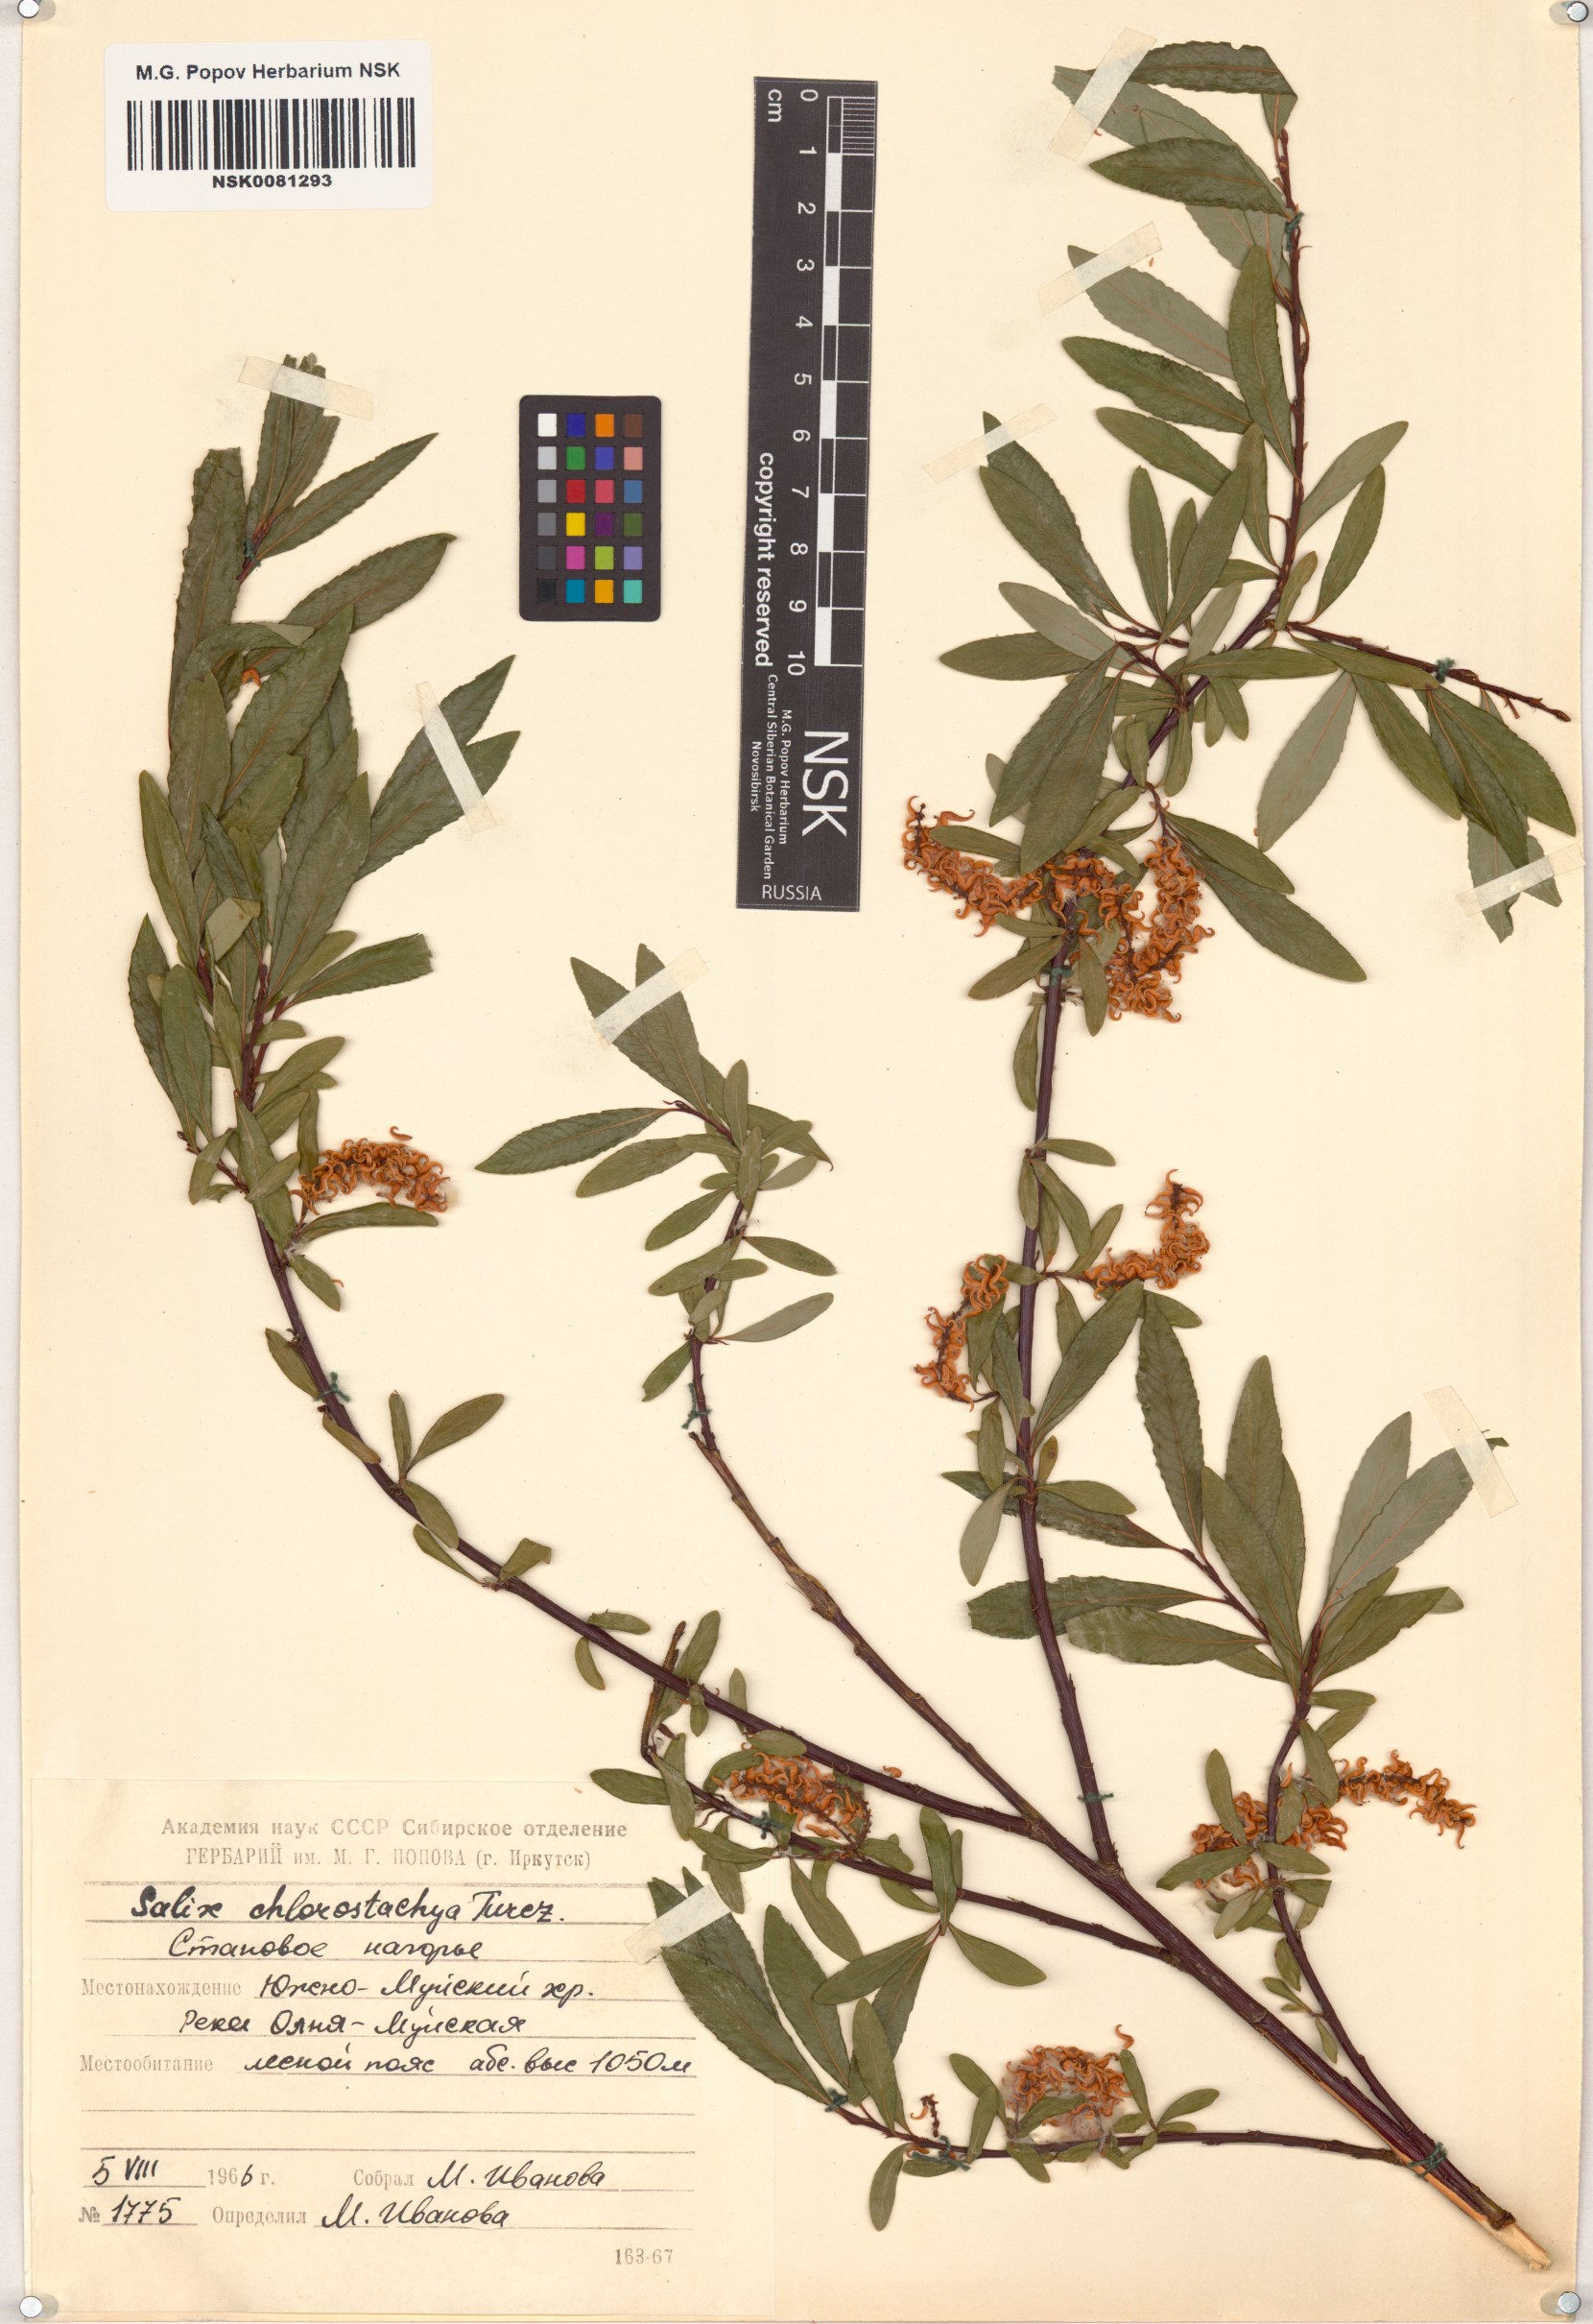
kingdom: Plantae
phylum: Tracheophyta
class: Magnoliopsida
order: Malpighiales
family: Salicaceae
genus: Salix
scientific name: Salix rhamnifolia
